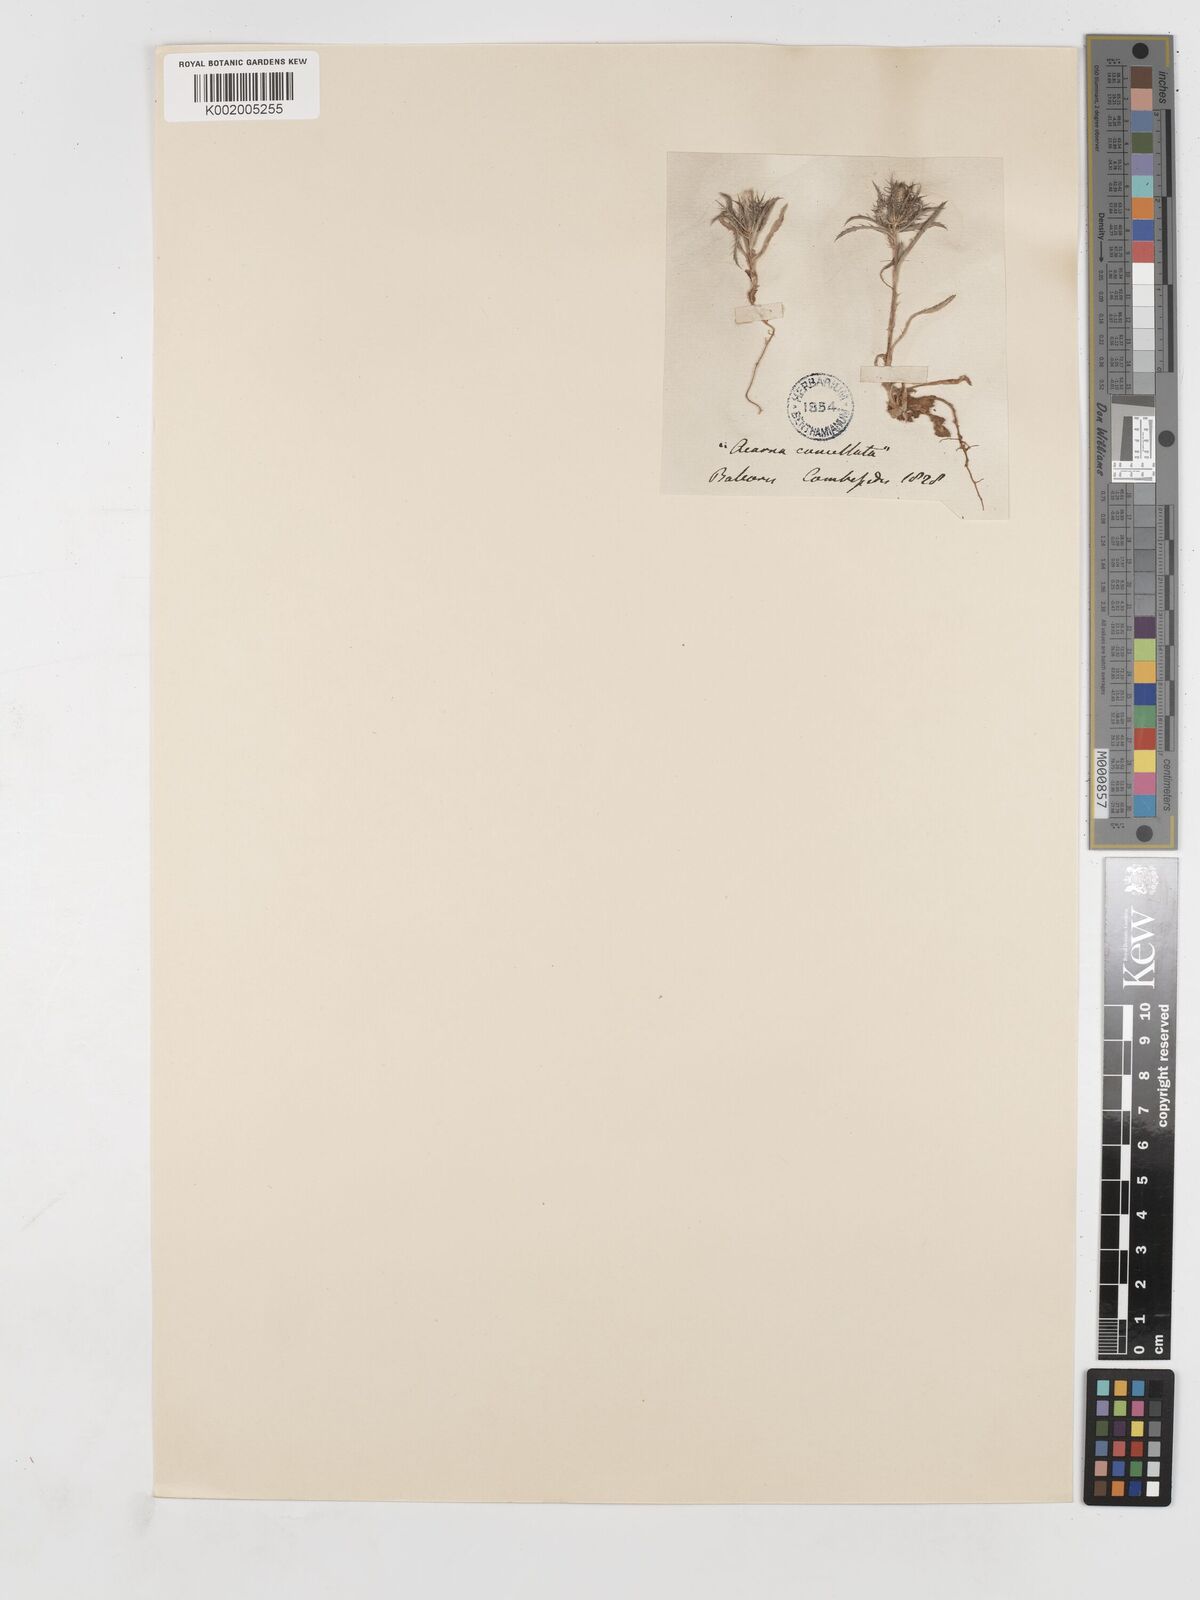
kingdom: Plantae
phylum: Tracheophyta
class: Magnoliopsida
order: Asterales
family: Asteraceae
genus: Atractylis
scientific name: Atractylis cancellata
